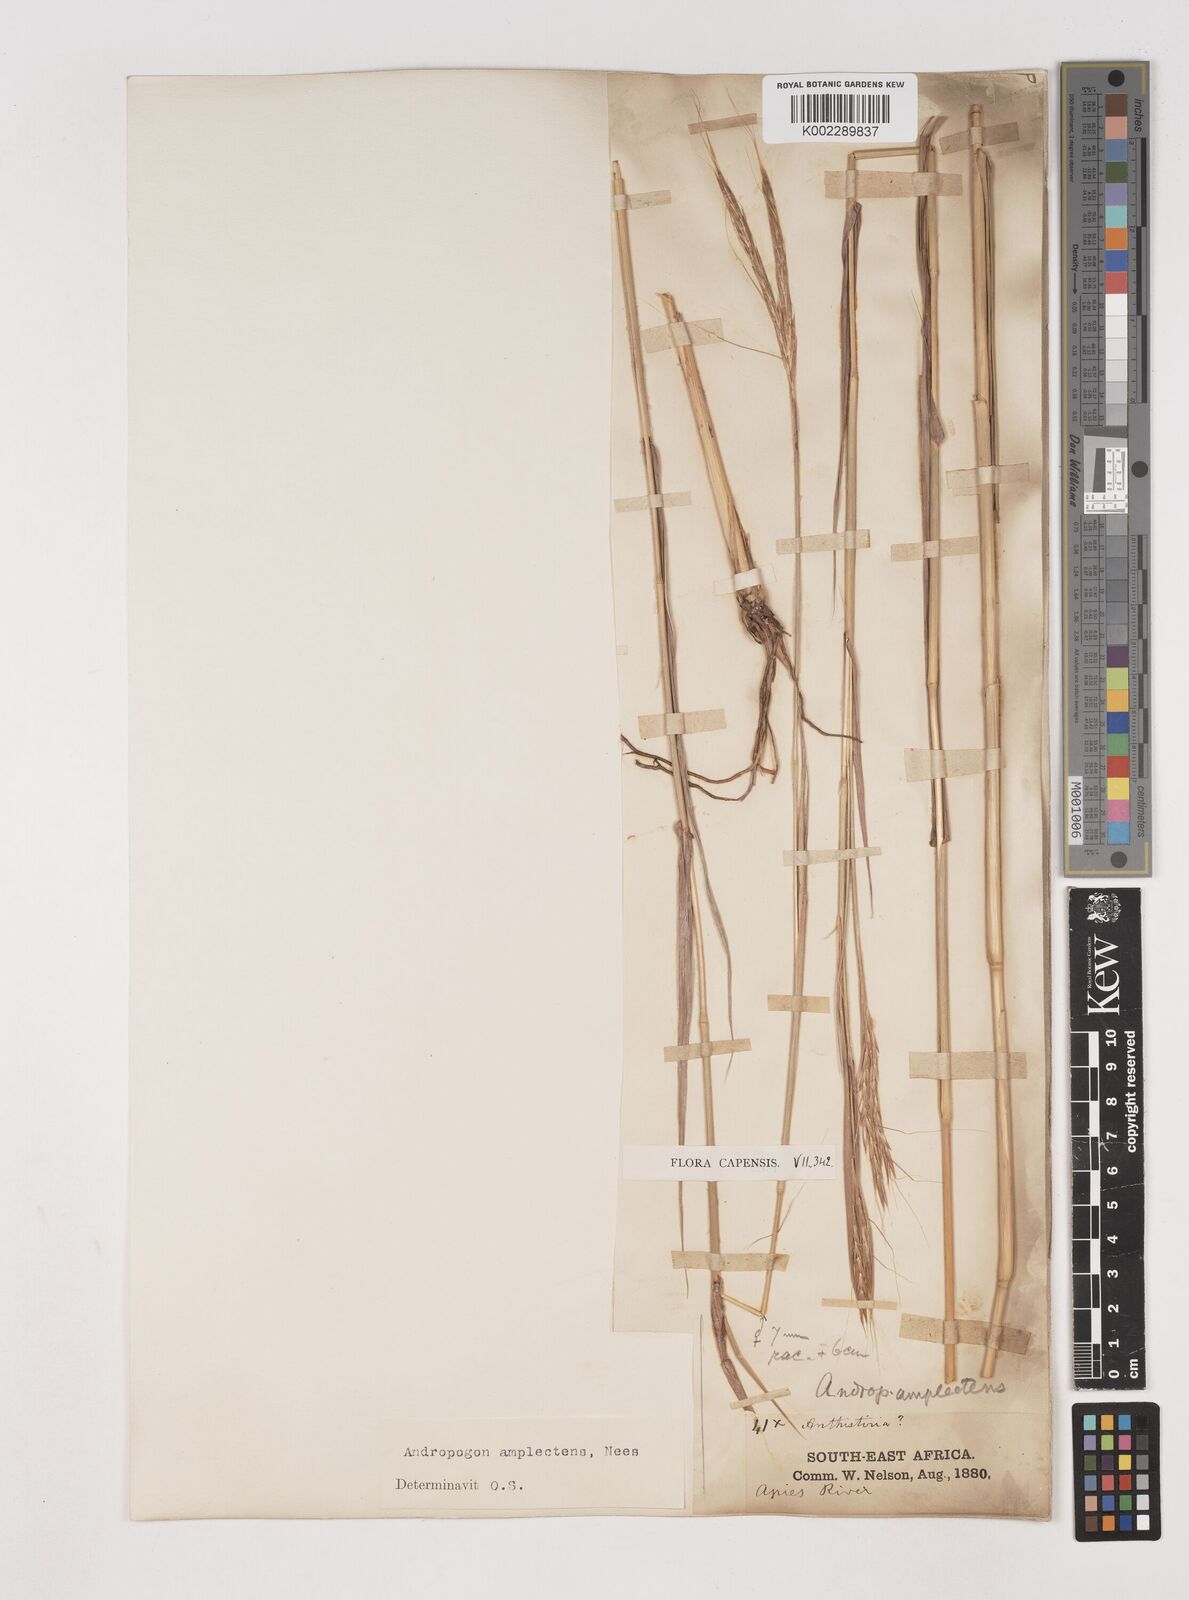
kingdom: Plantae
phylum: Tracheophyta
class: Liliopsida
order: Poales
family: Poaceae
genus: Diheteropogon
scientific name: Diheteropogon amplectens
